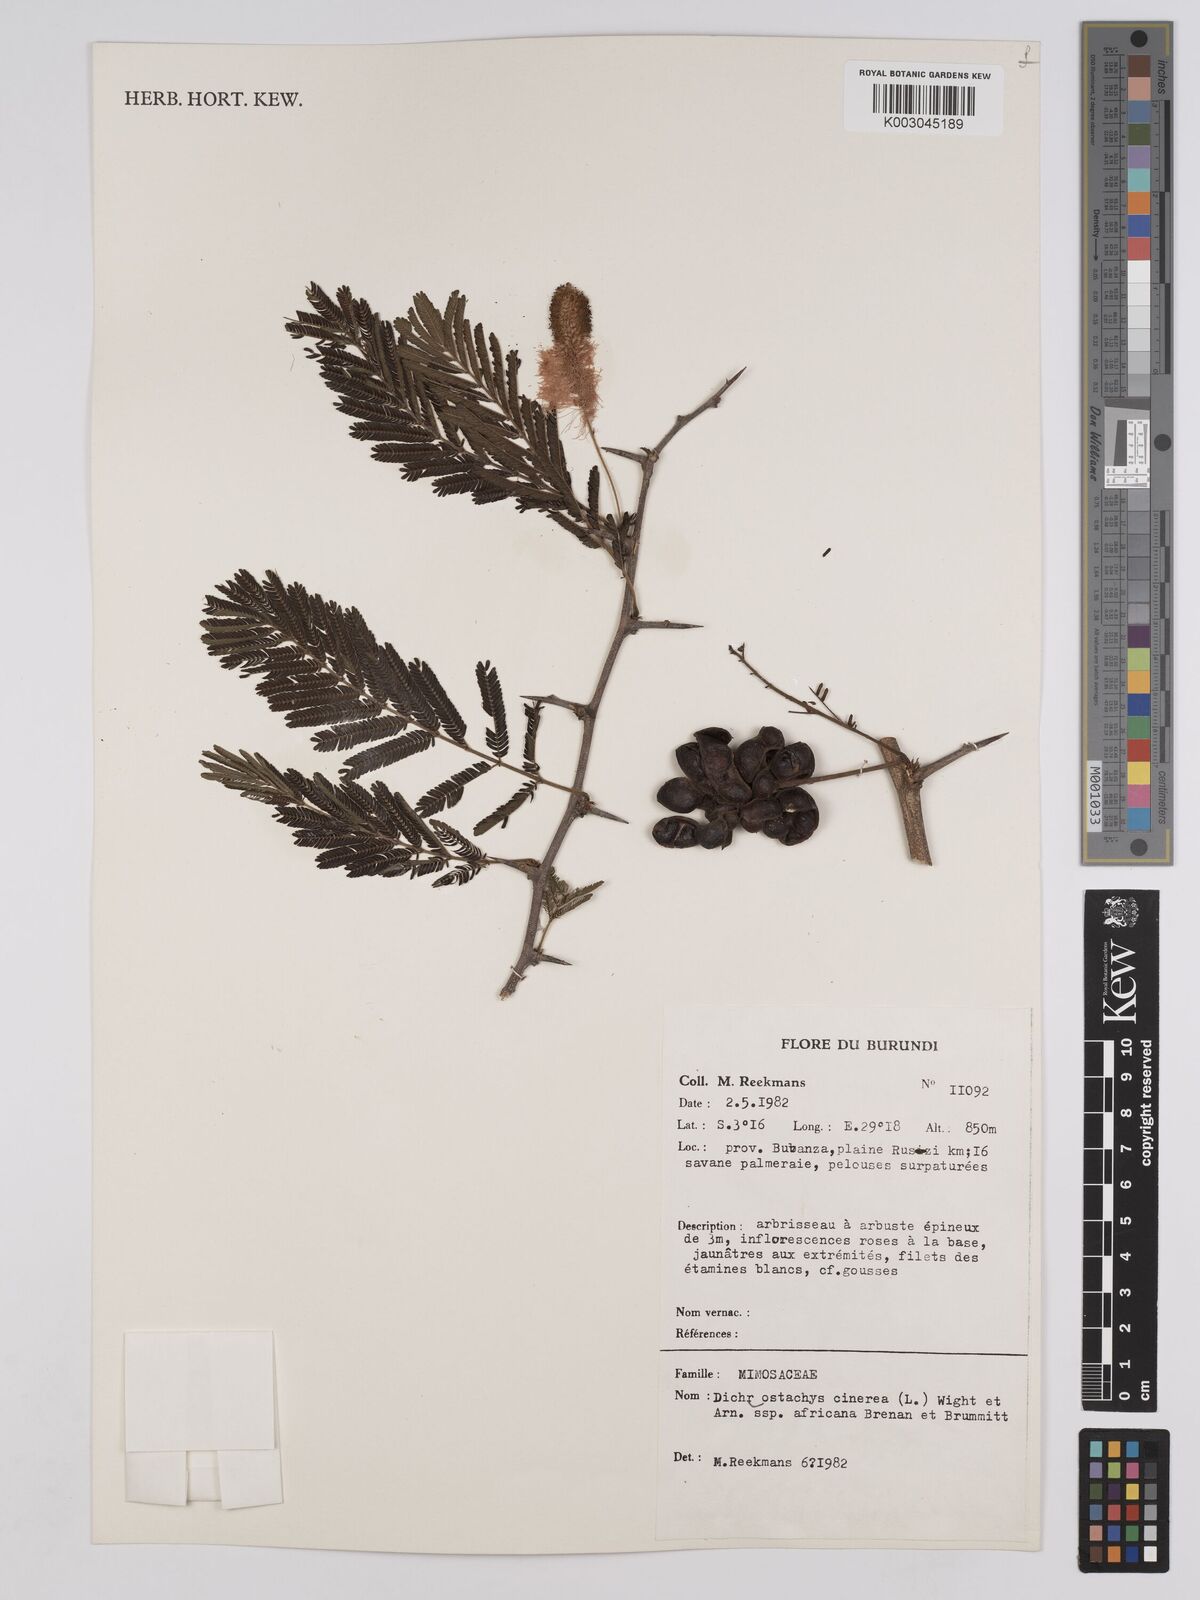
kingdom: Plantae
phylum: Tracheophyta
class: Magnoliopsida
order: Fabales
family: Fabaceae
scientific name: Fabaceae
